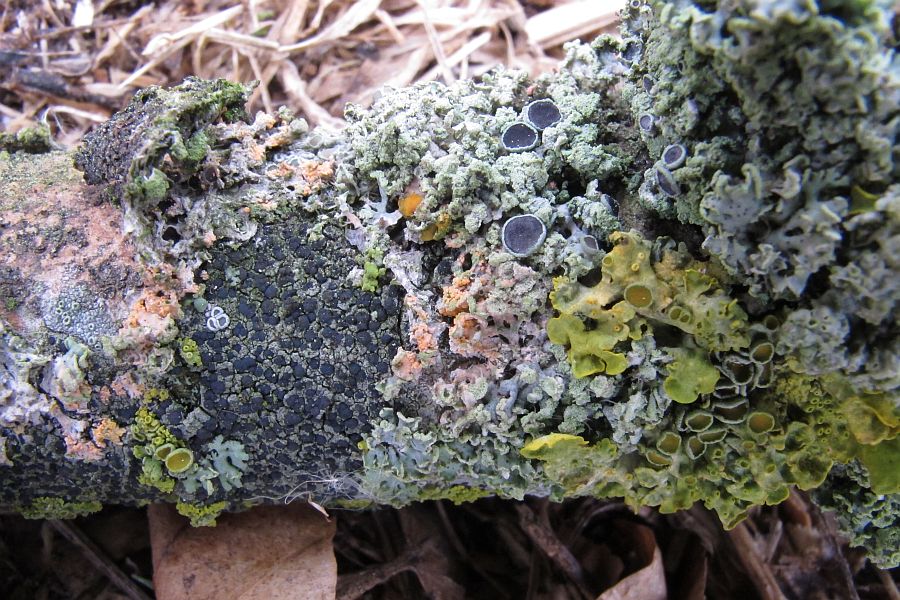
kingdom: Fungi
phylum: Basidiomycota
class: Agaricomycetes
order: Corticiales
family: Corticiaceae
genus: Erythricium
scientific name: Erythricium aurantiacum
